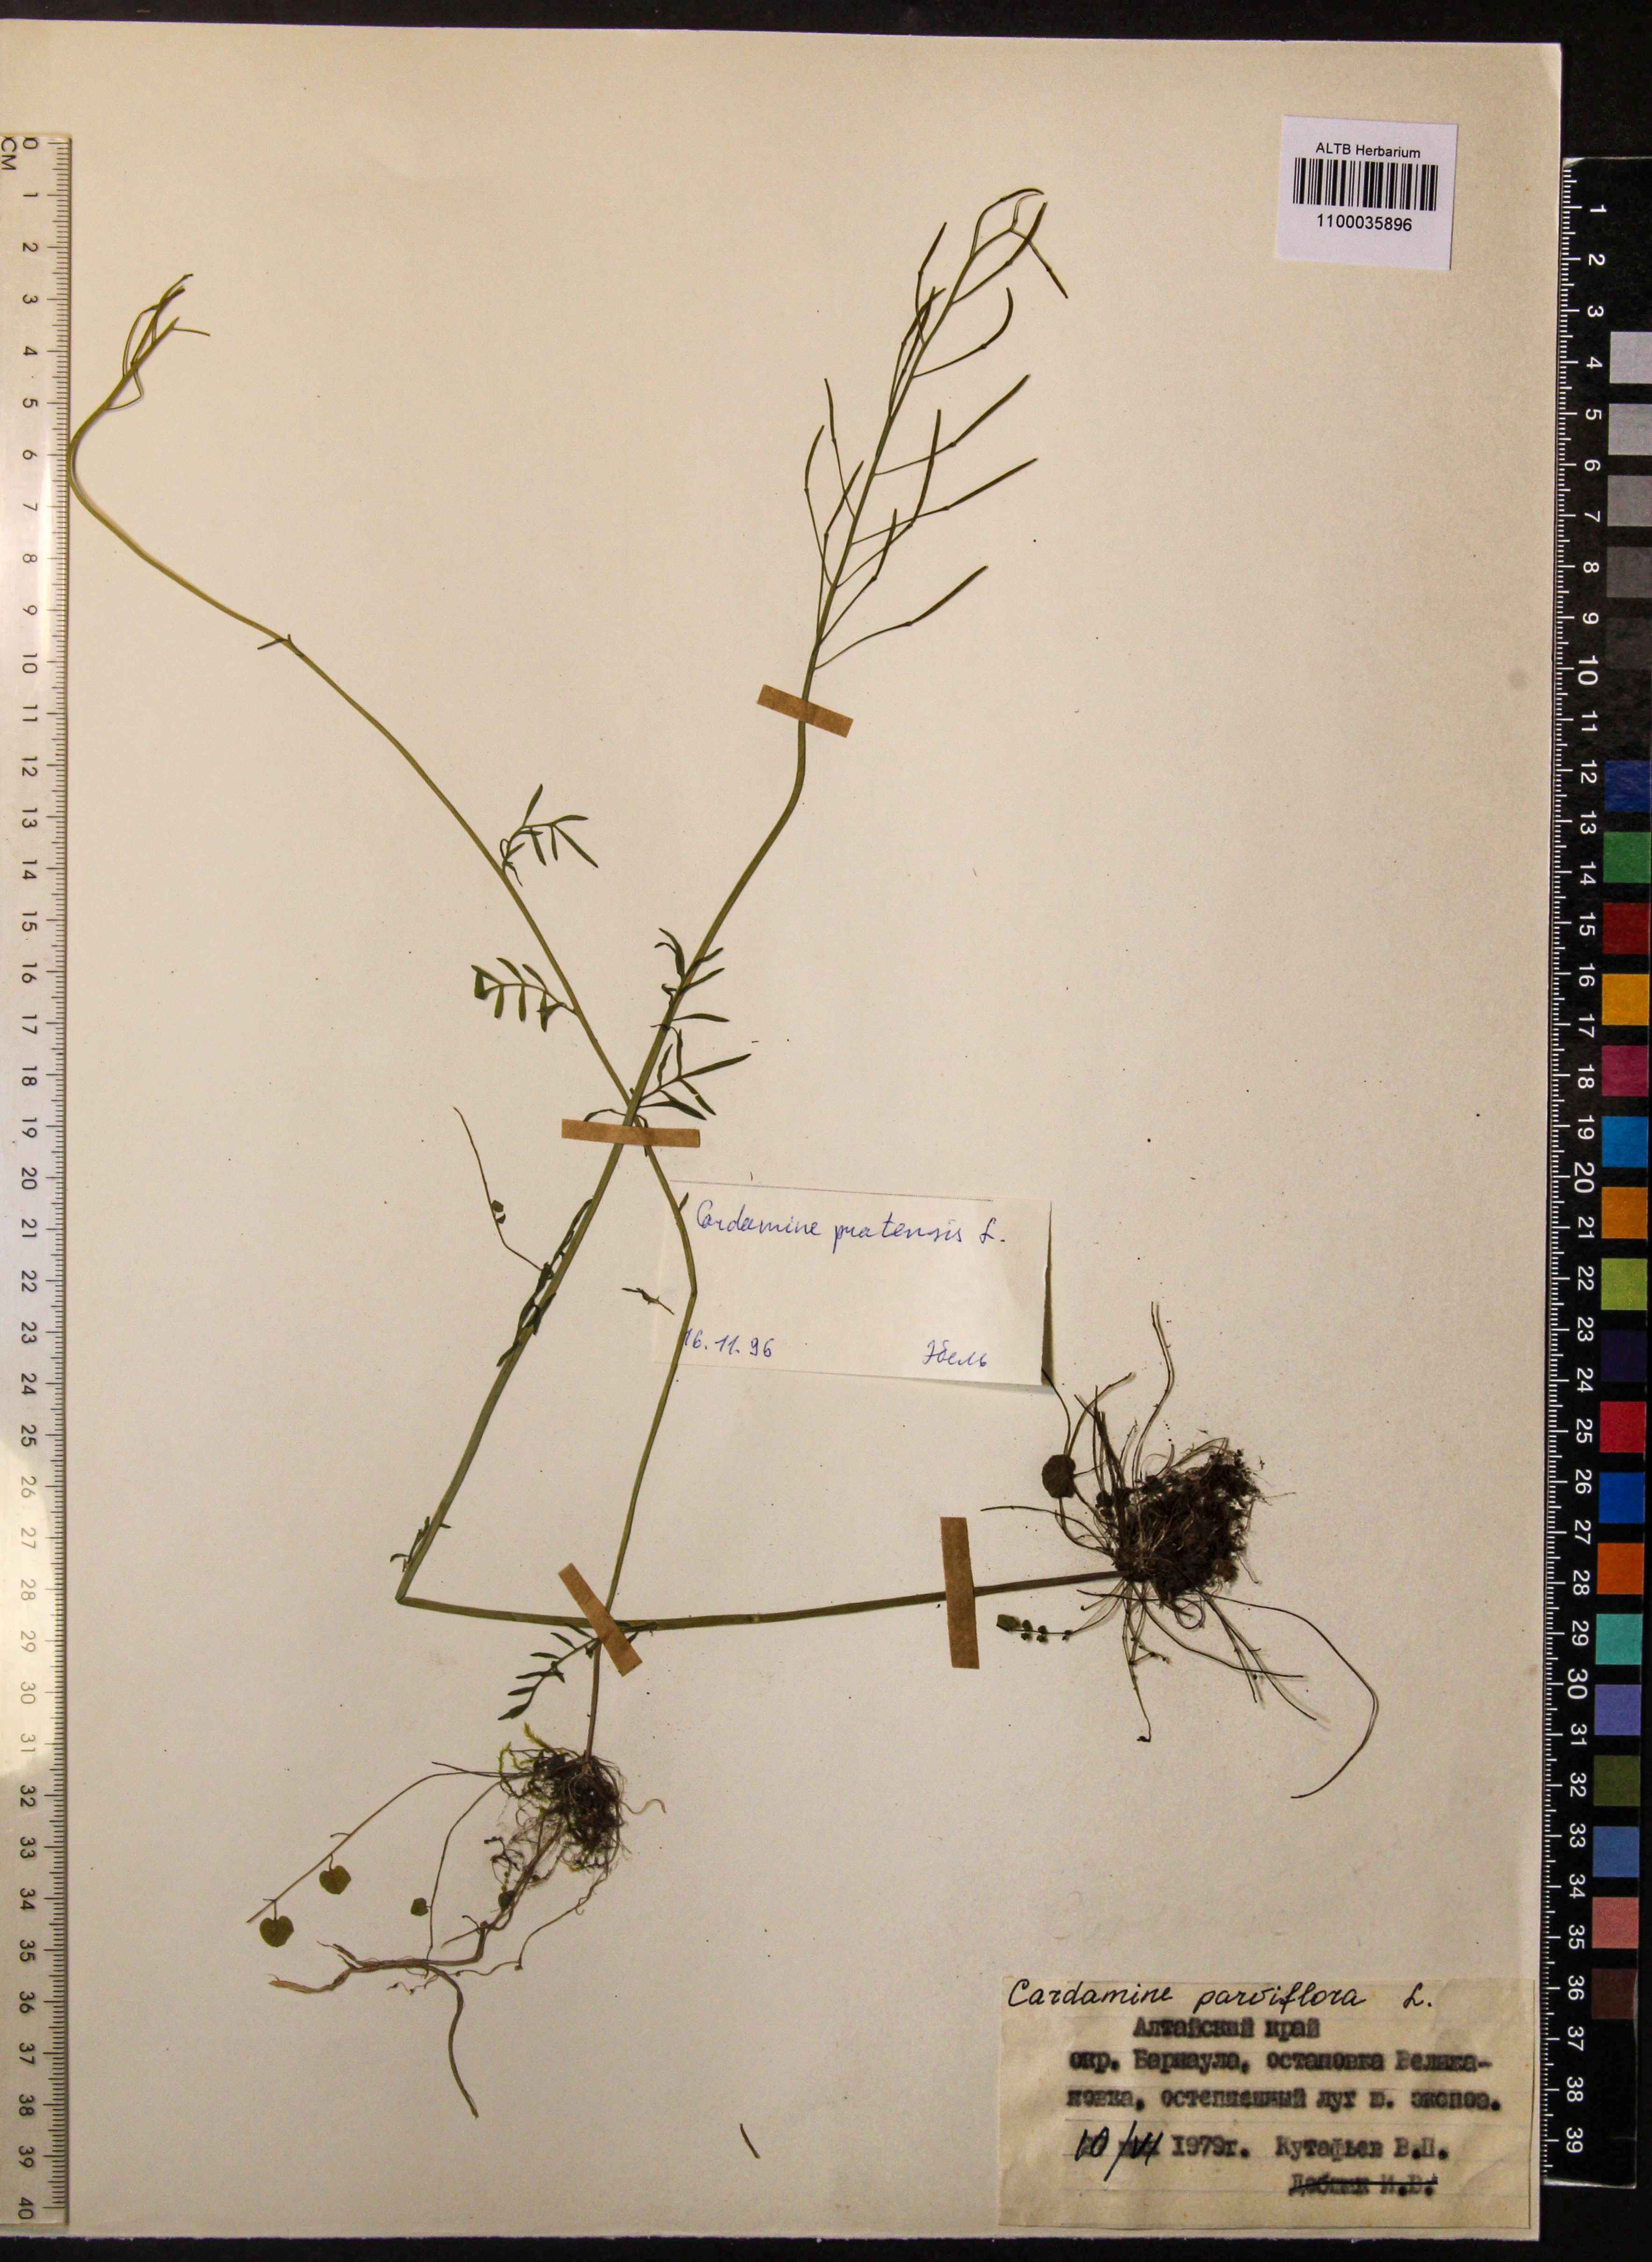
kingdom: Plantae
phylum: Tracheophyta
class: Magnoliopsida
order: Brassicales
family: Brassicaceae
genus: Cardamine
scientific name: Cardamine parviflora
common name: Sand bittercress
